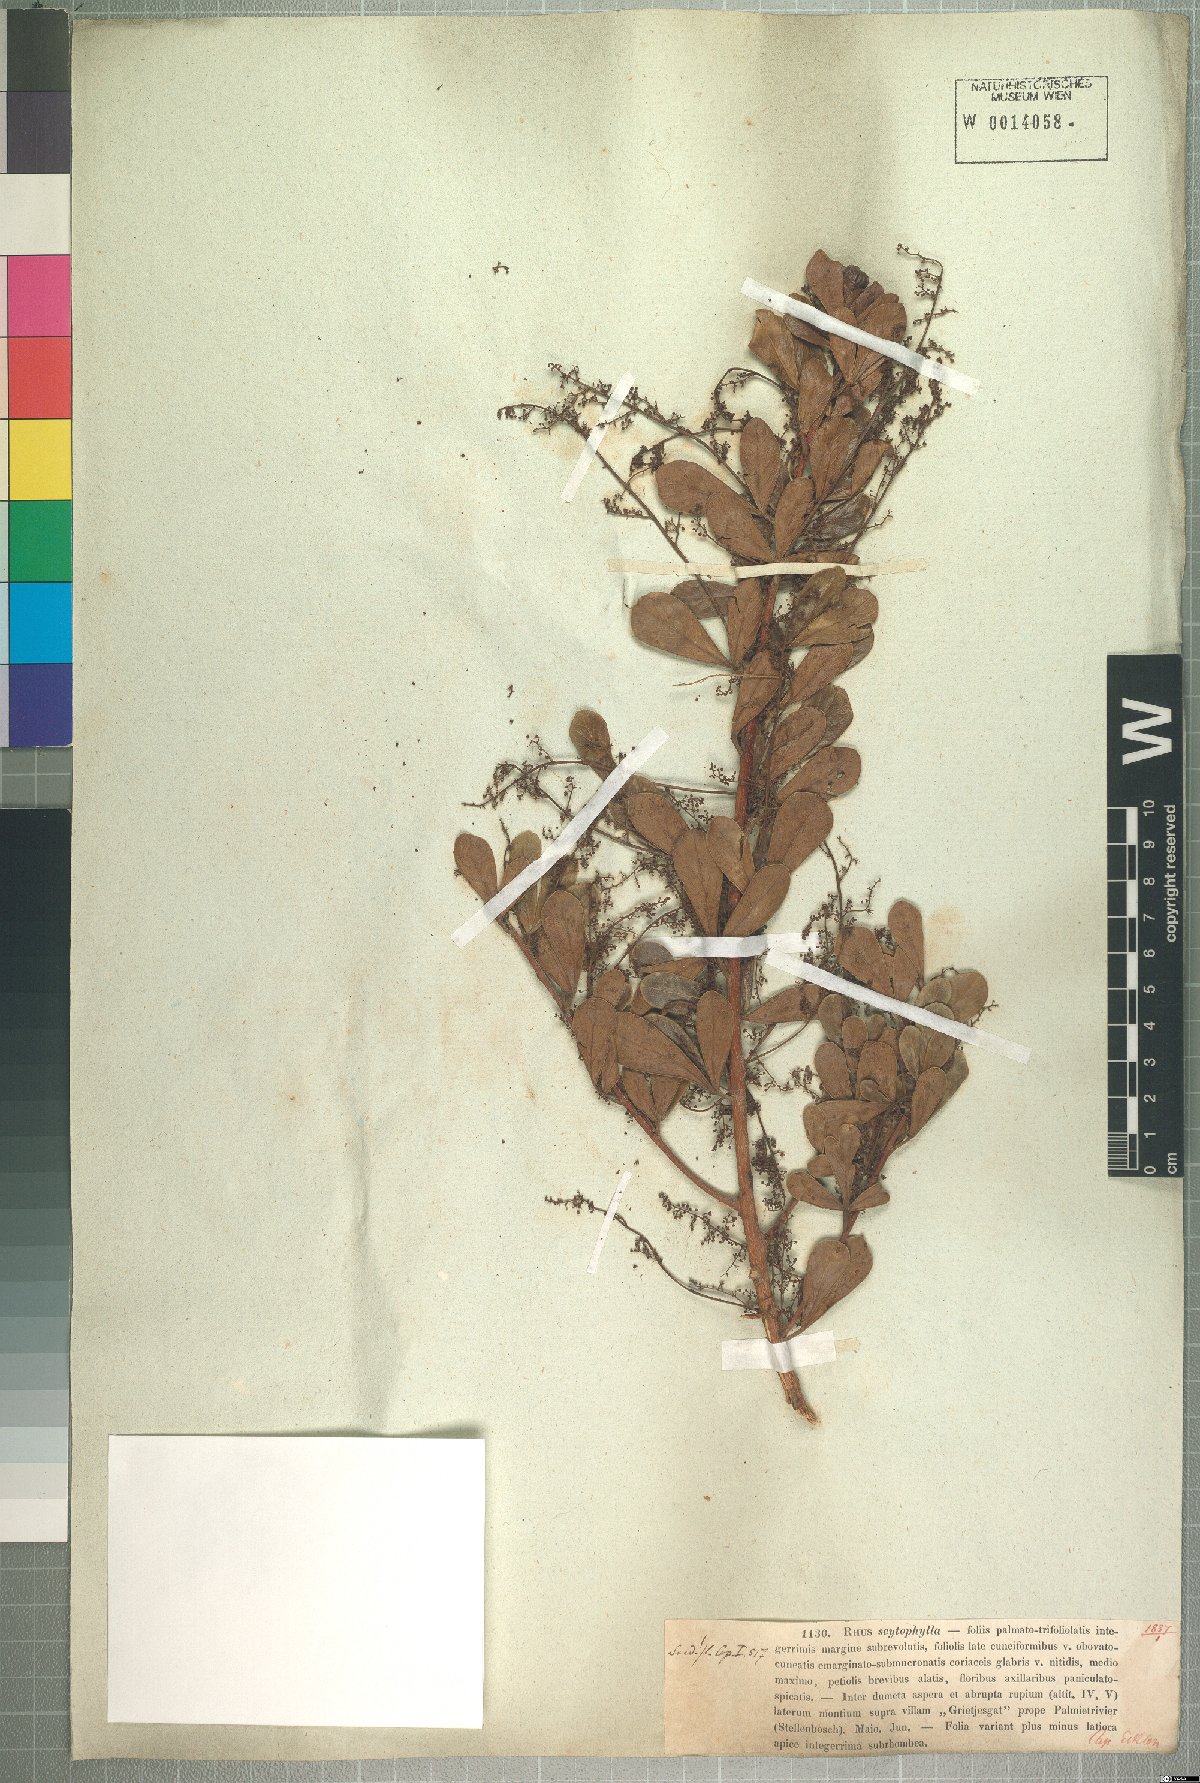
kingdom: Plantae
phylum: Tracheophyta
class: Magnoliopsida
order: Sapindales
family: Anacardiaceae
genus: Searsia
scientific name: Searsia scytophylla
